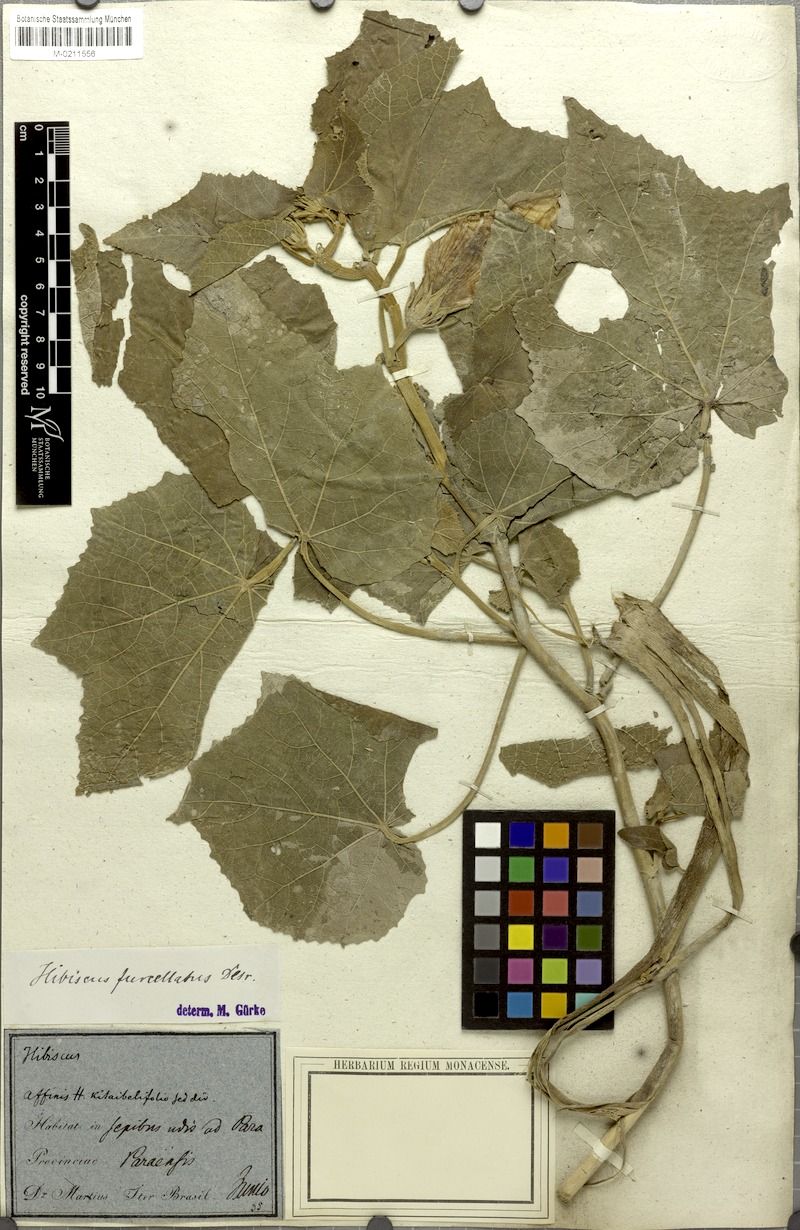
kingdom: Plantae
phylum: Tracheophyta
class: Magnoliopsida
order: Malvales
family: Malvaceae
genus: Hibiscus
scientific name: Hibiscus furcellatus
